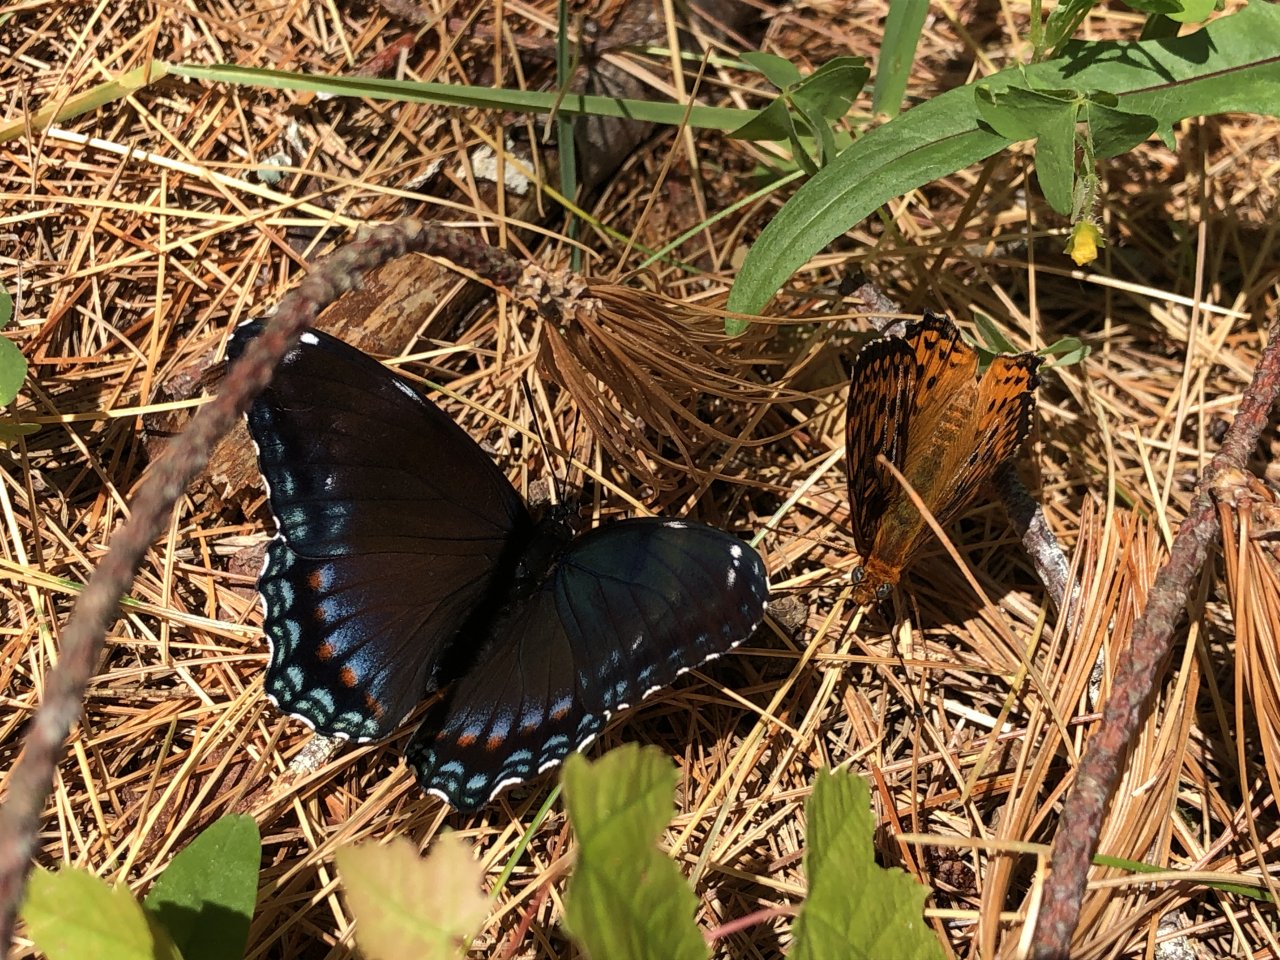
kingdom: Animalia
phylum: Arthropoda
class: Insecta
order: Lepidoptera
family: Nymphalidae
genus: Limenitis
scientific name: Limenitis
